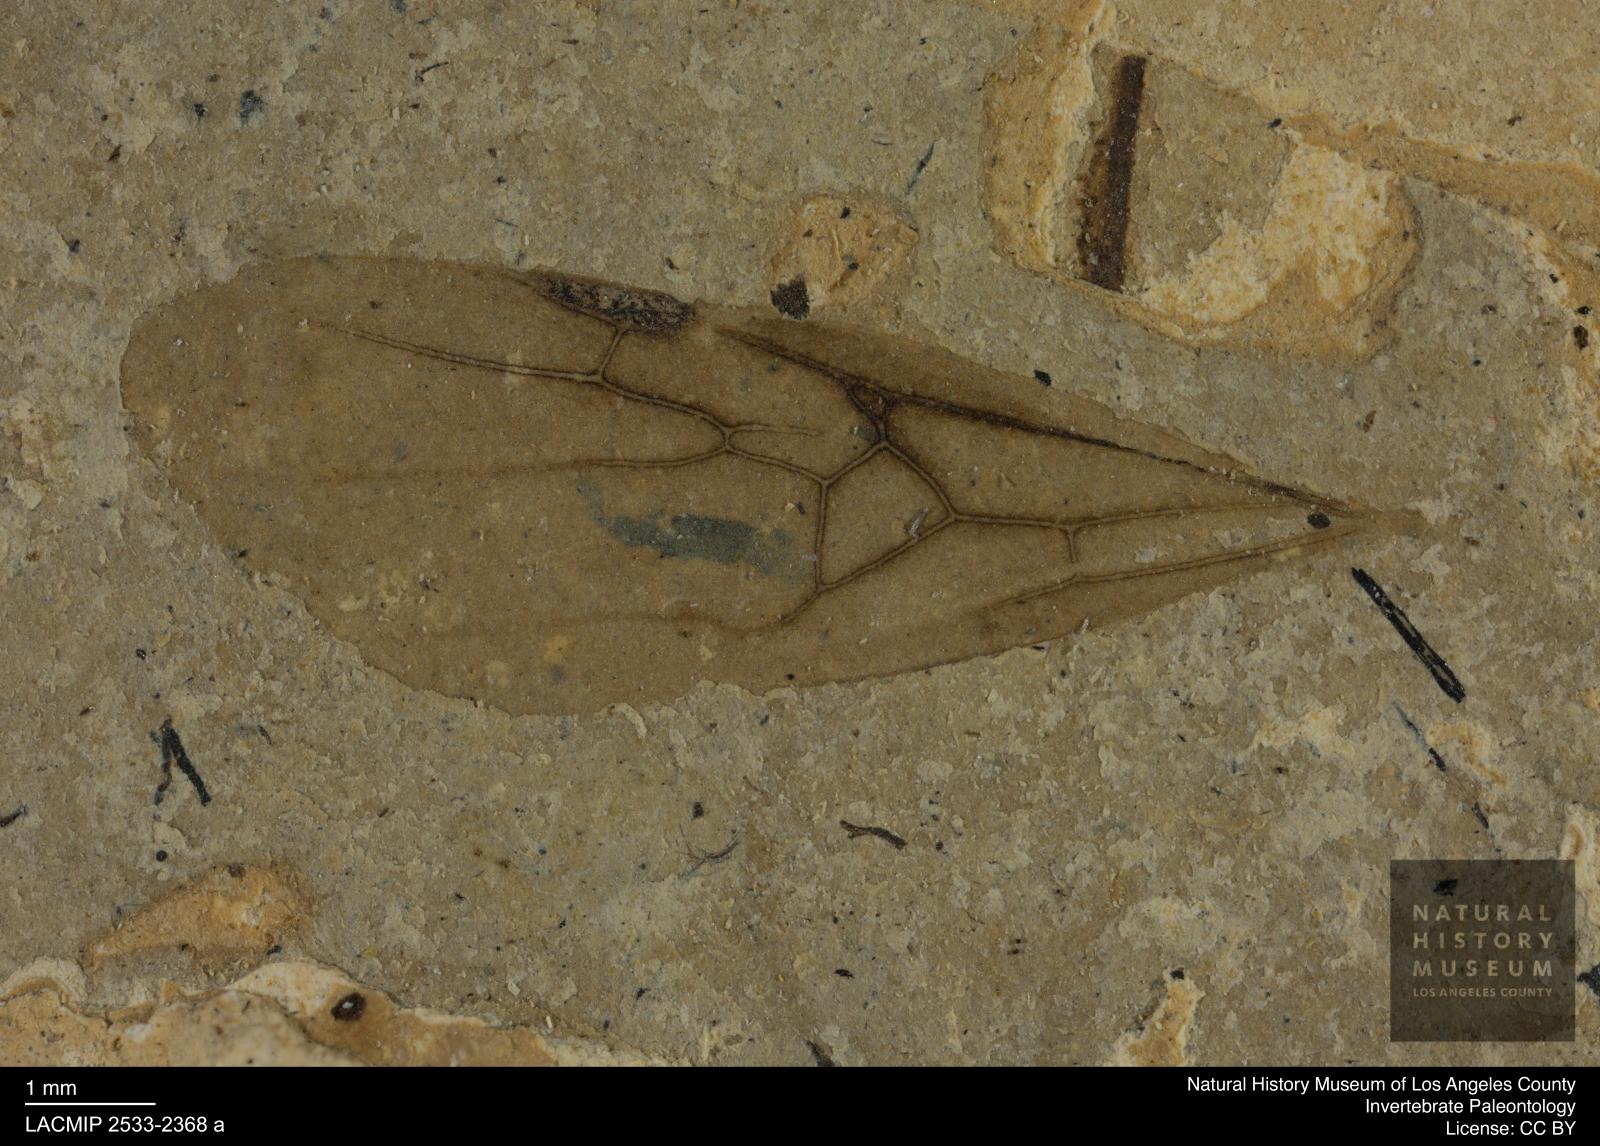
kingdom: Animalia
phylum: Arthropoda
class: Insecta
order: Hymenoptera
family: Formicidae
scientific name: Formicidae
